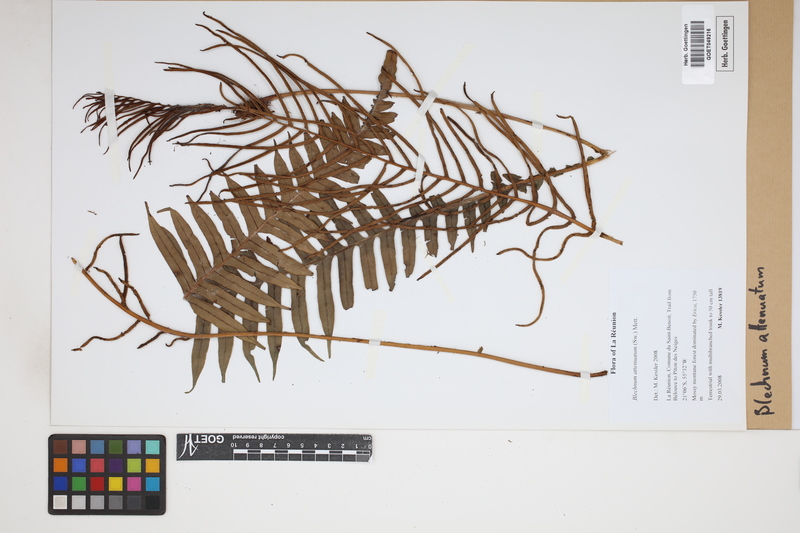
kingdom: Plantae
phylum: Tracheophyta
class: Polypodiopsida
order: Polypodiales
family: Blechnaceae
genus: Lomaridium
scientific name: Lomaridium attenuatum
